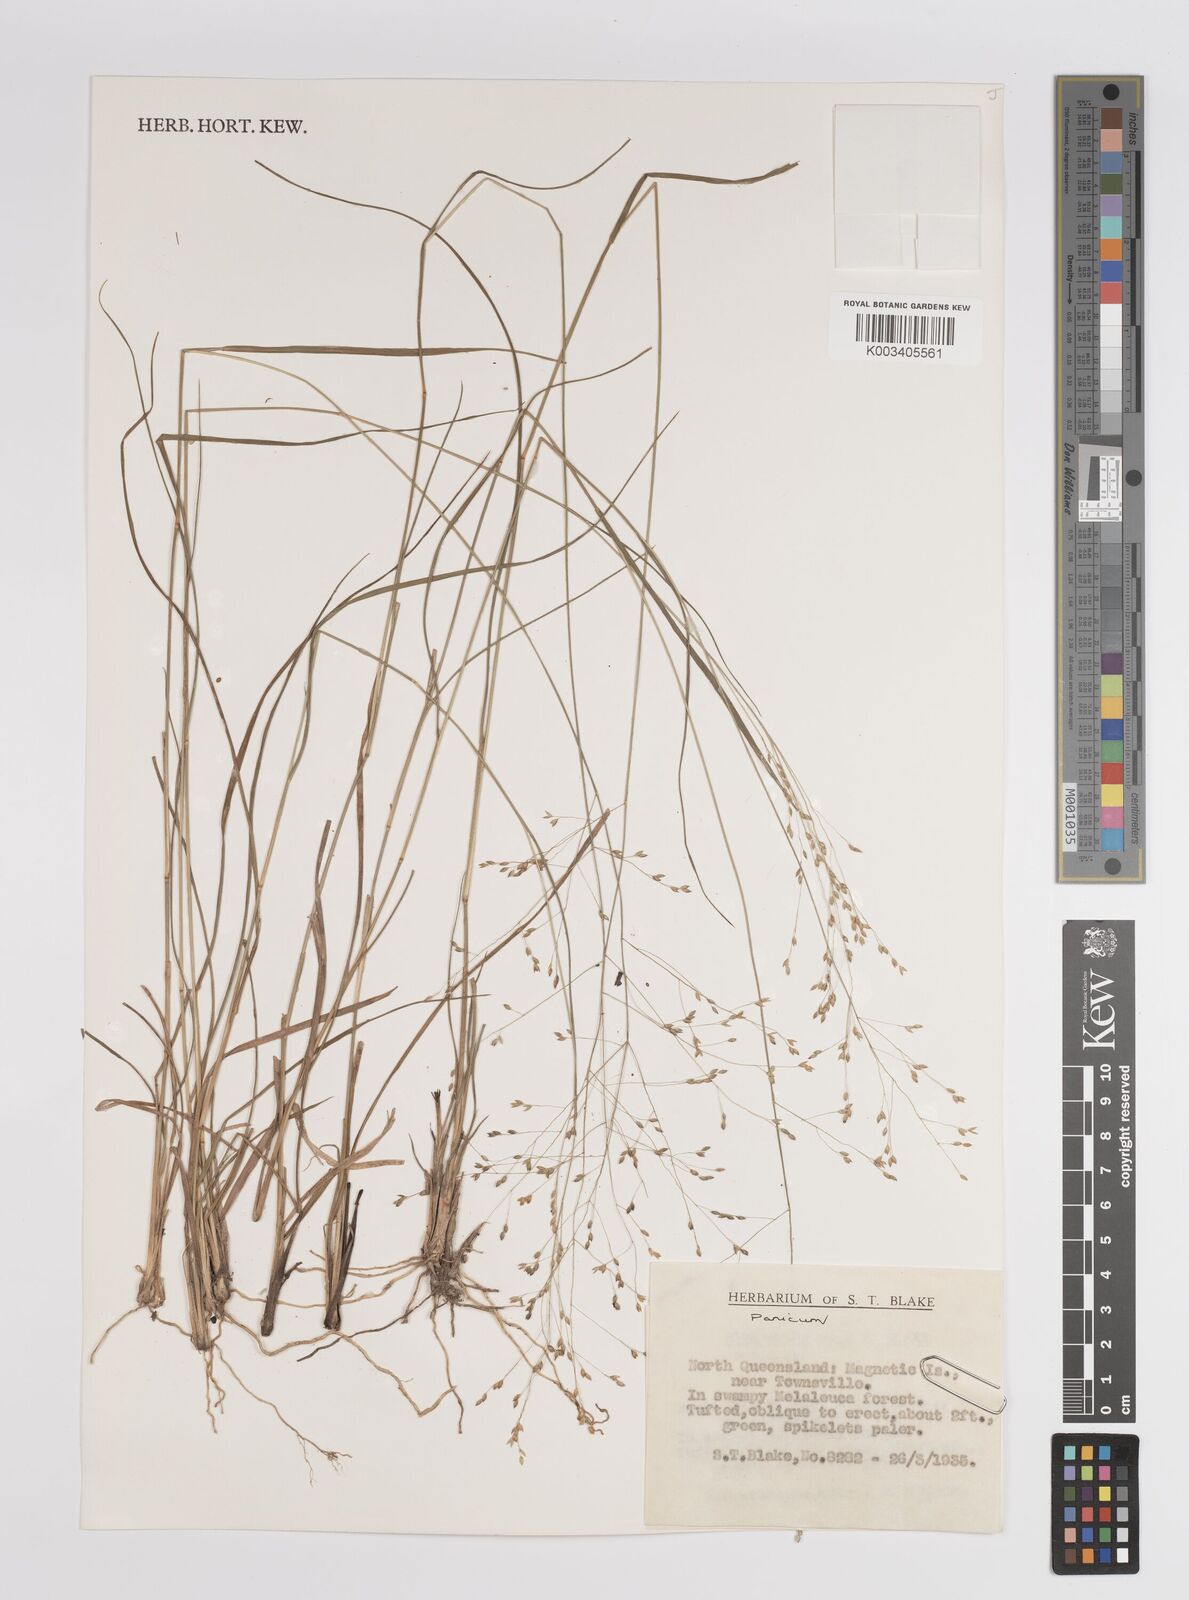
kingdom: Plantae
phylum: Tracheophyta
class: Liliopsida
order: Poales
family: Poaceae
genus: Panicum
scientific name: Panicum
